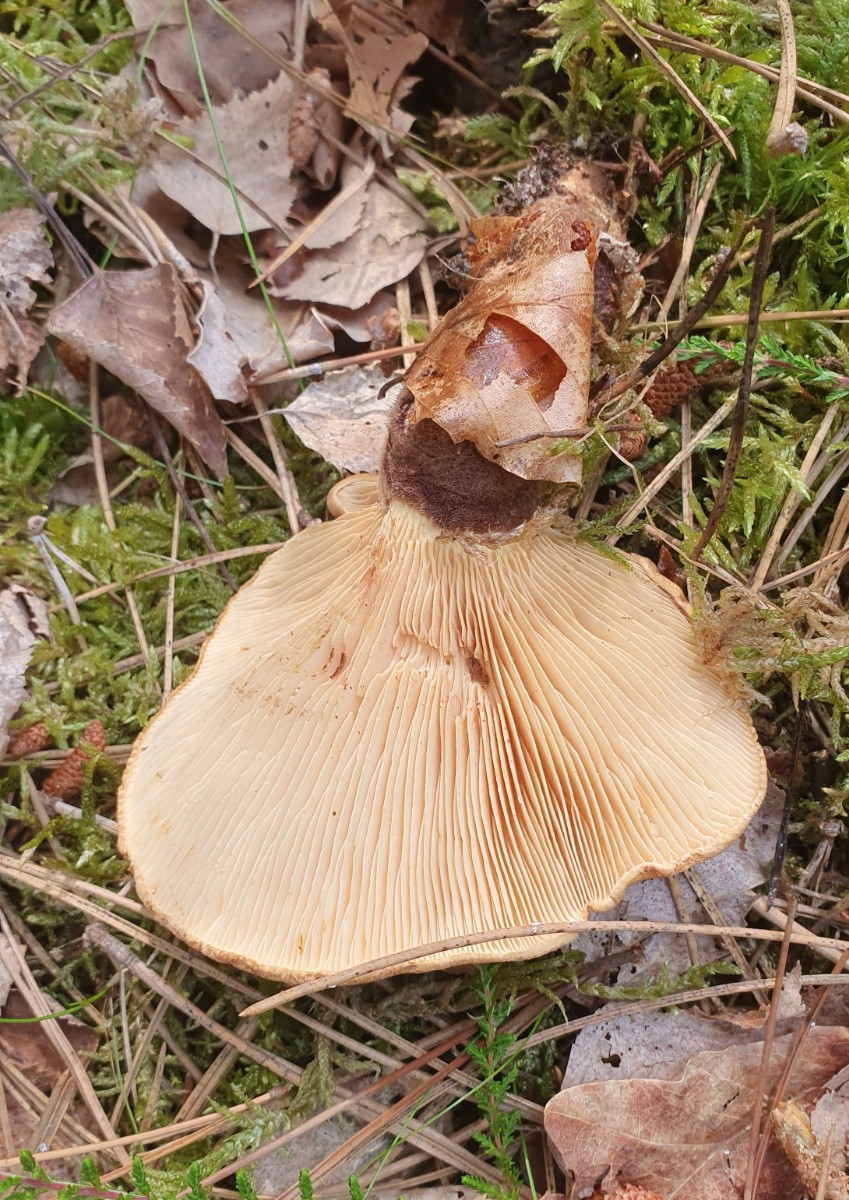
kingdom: Fungi
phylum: Basidiomycota
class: Agaricomycetes
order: Boletales
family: Tapinellaceae
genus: Tapinella
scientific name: Tapinella atrotomentosa
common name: sortfiltet viftesvamp
